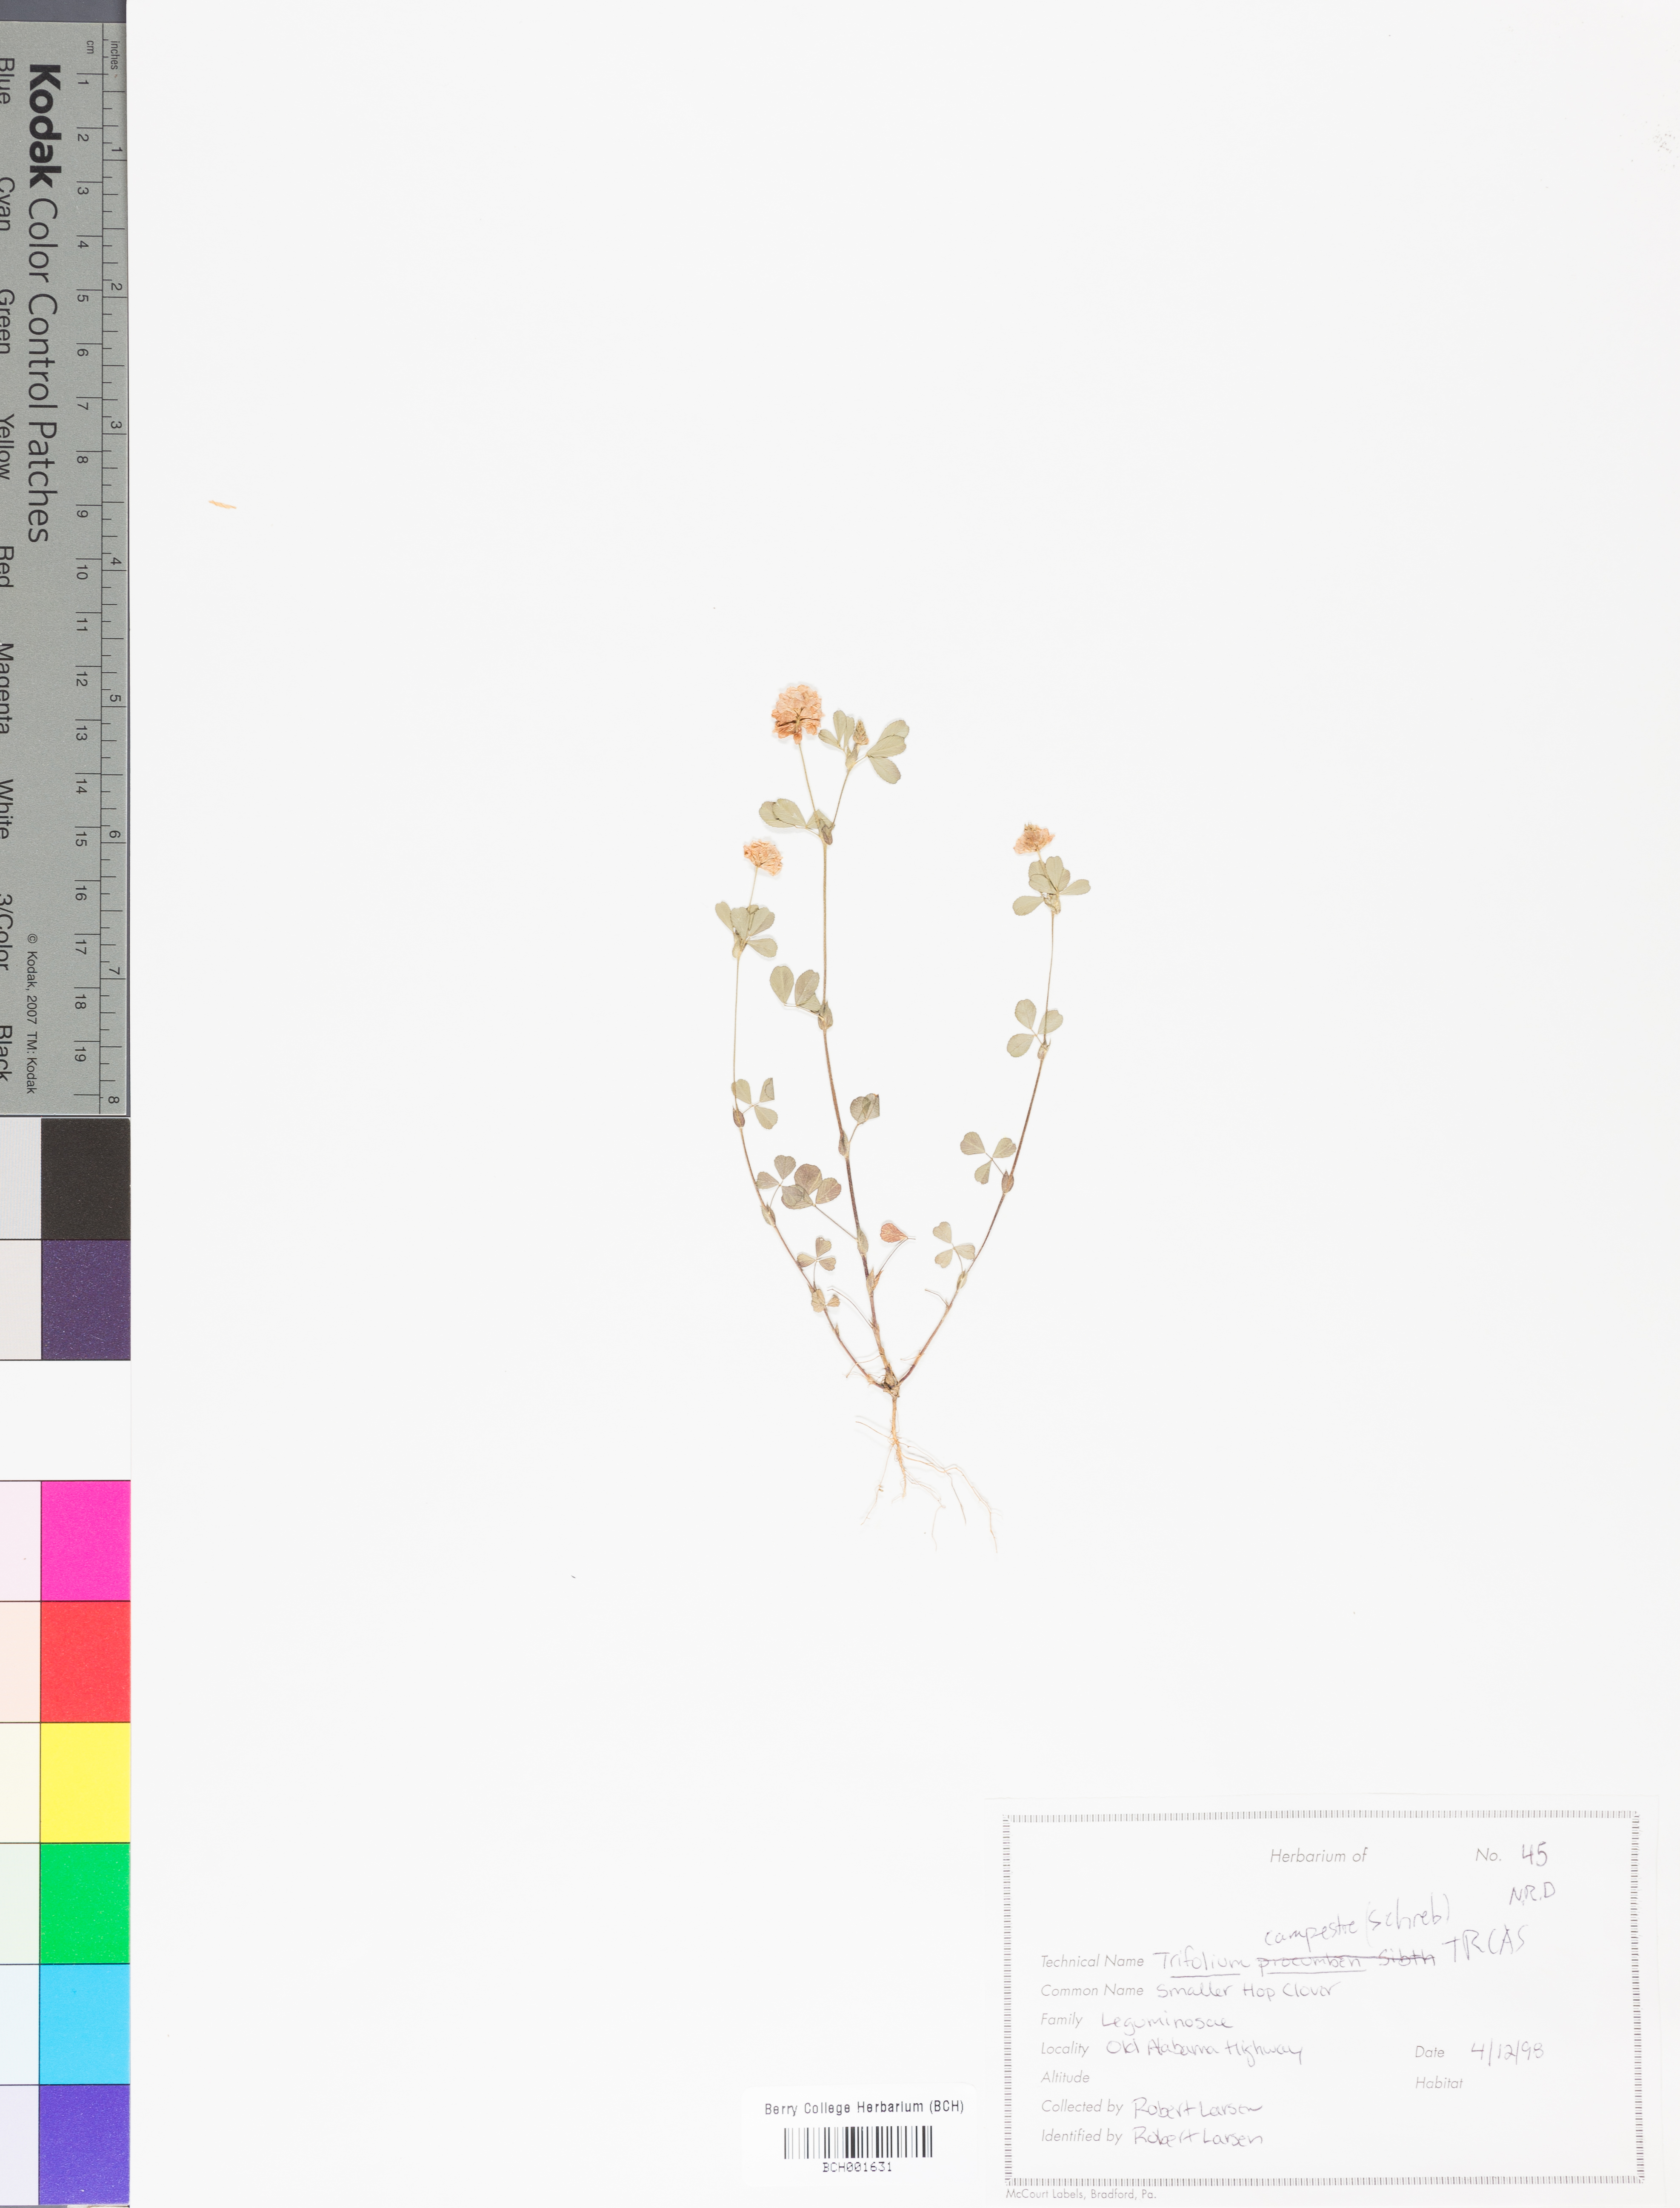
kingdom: Plantae
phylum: Tracheophyta
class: Magnoliopsida
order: Fabales
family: Fabaceae
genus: Trifolium
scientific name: Trifolium campestre
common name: Field clover
